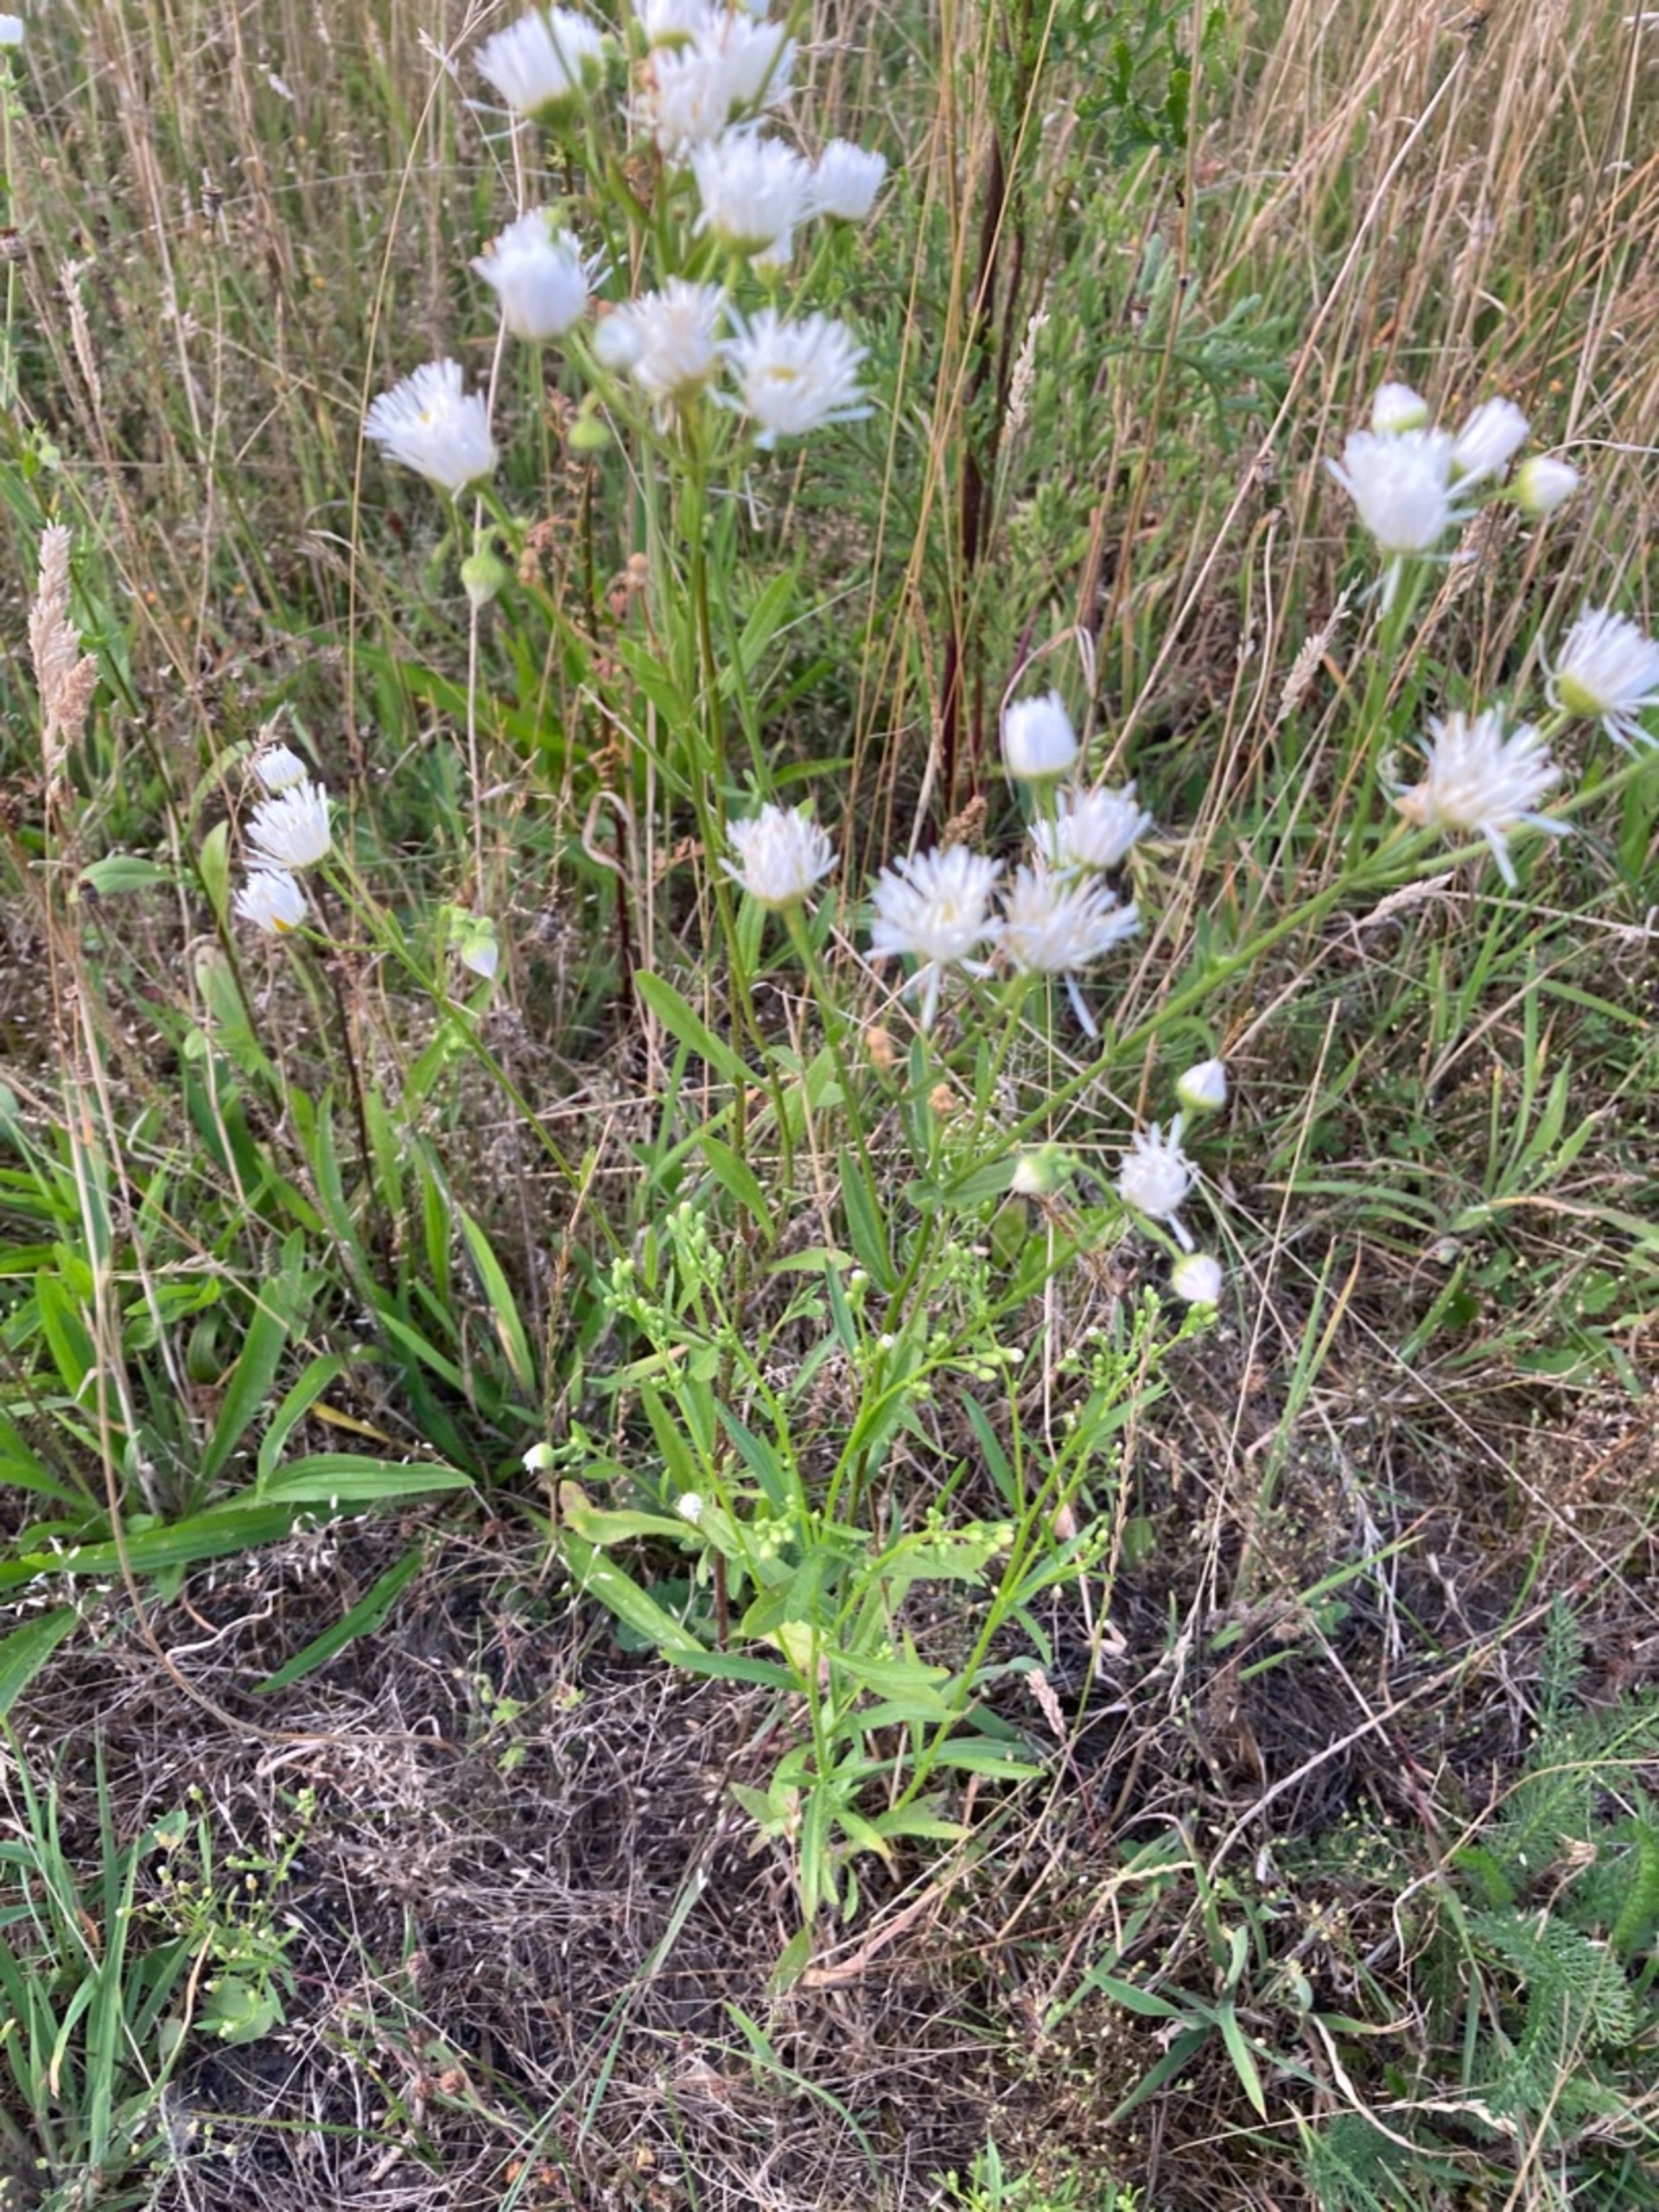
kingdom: Plantae
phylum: Tracheophyta
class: Magnoliopsida
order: Asterales
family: Asteraceae
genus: Erigeron
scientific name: Erigeron strigosus
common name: Hvid smalstråle
